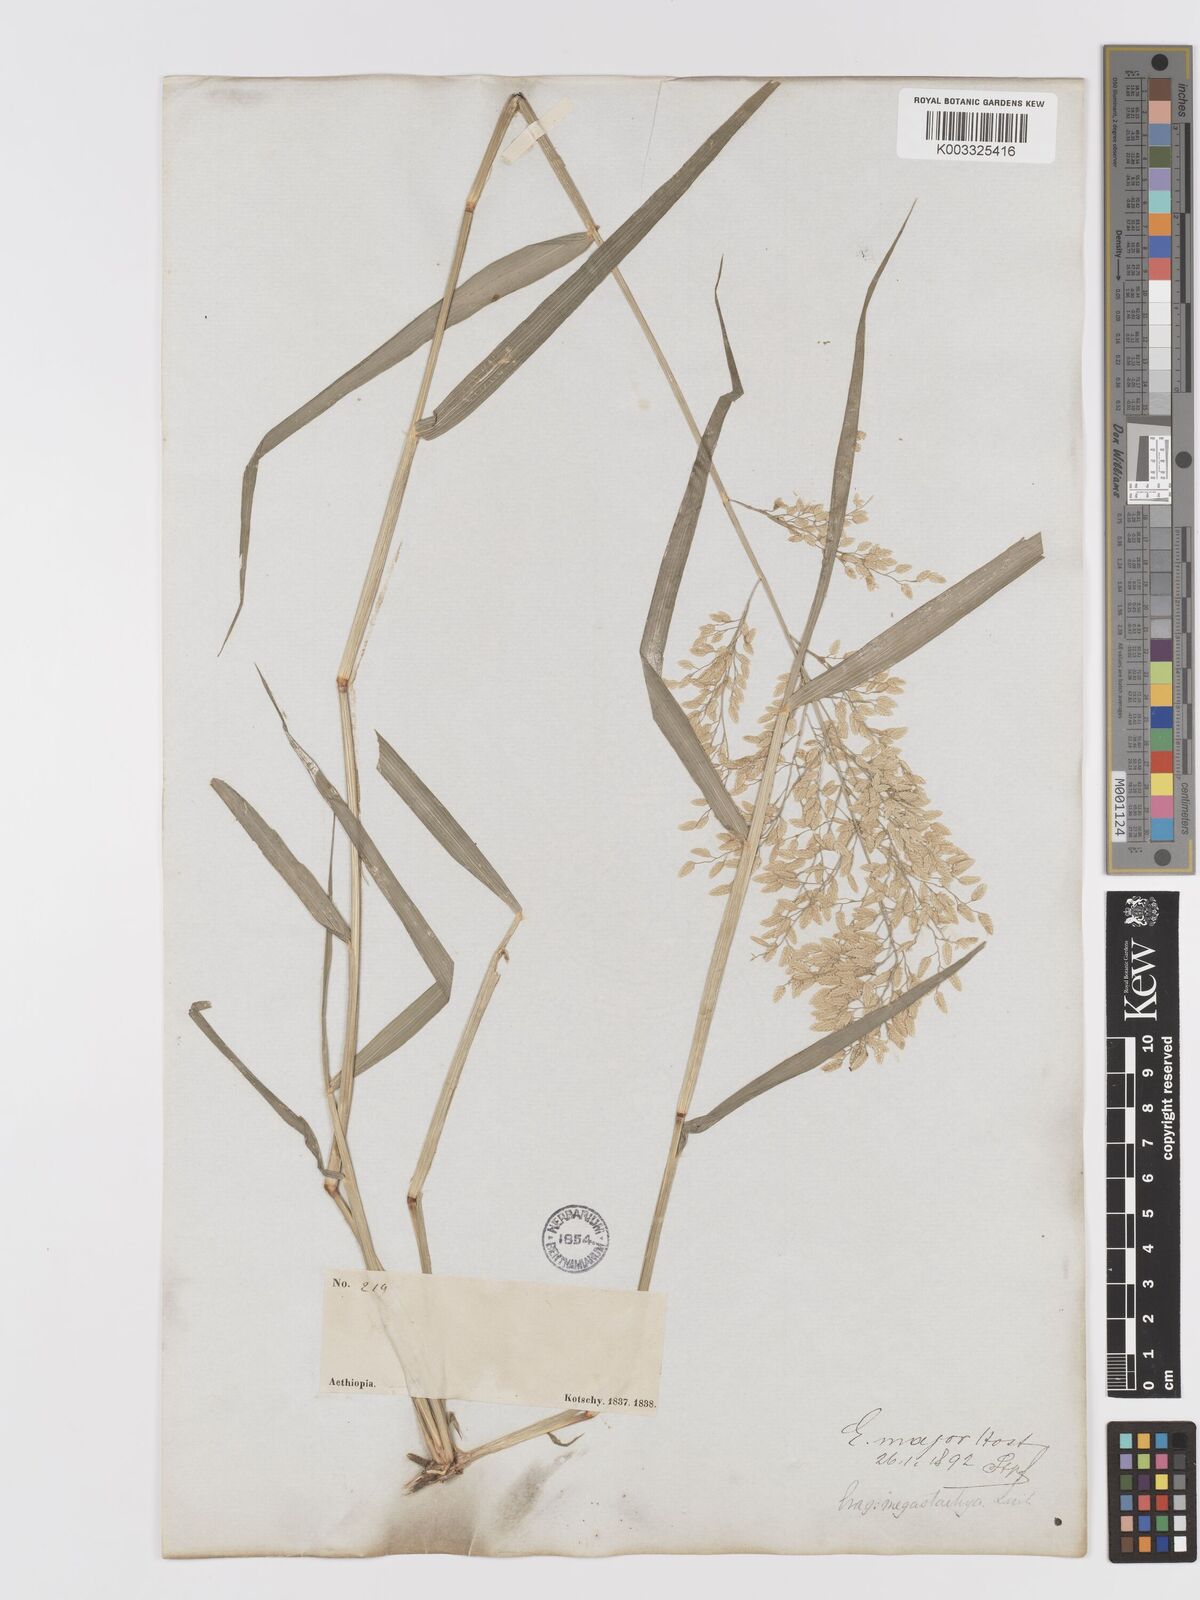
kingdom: Plantae
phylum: Tracheophyta
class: Liliopsida
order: Poales
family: Poaceae
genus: Eragrostis
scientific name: Eragrostis cilianensis
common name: Stinkgrass
